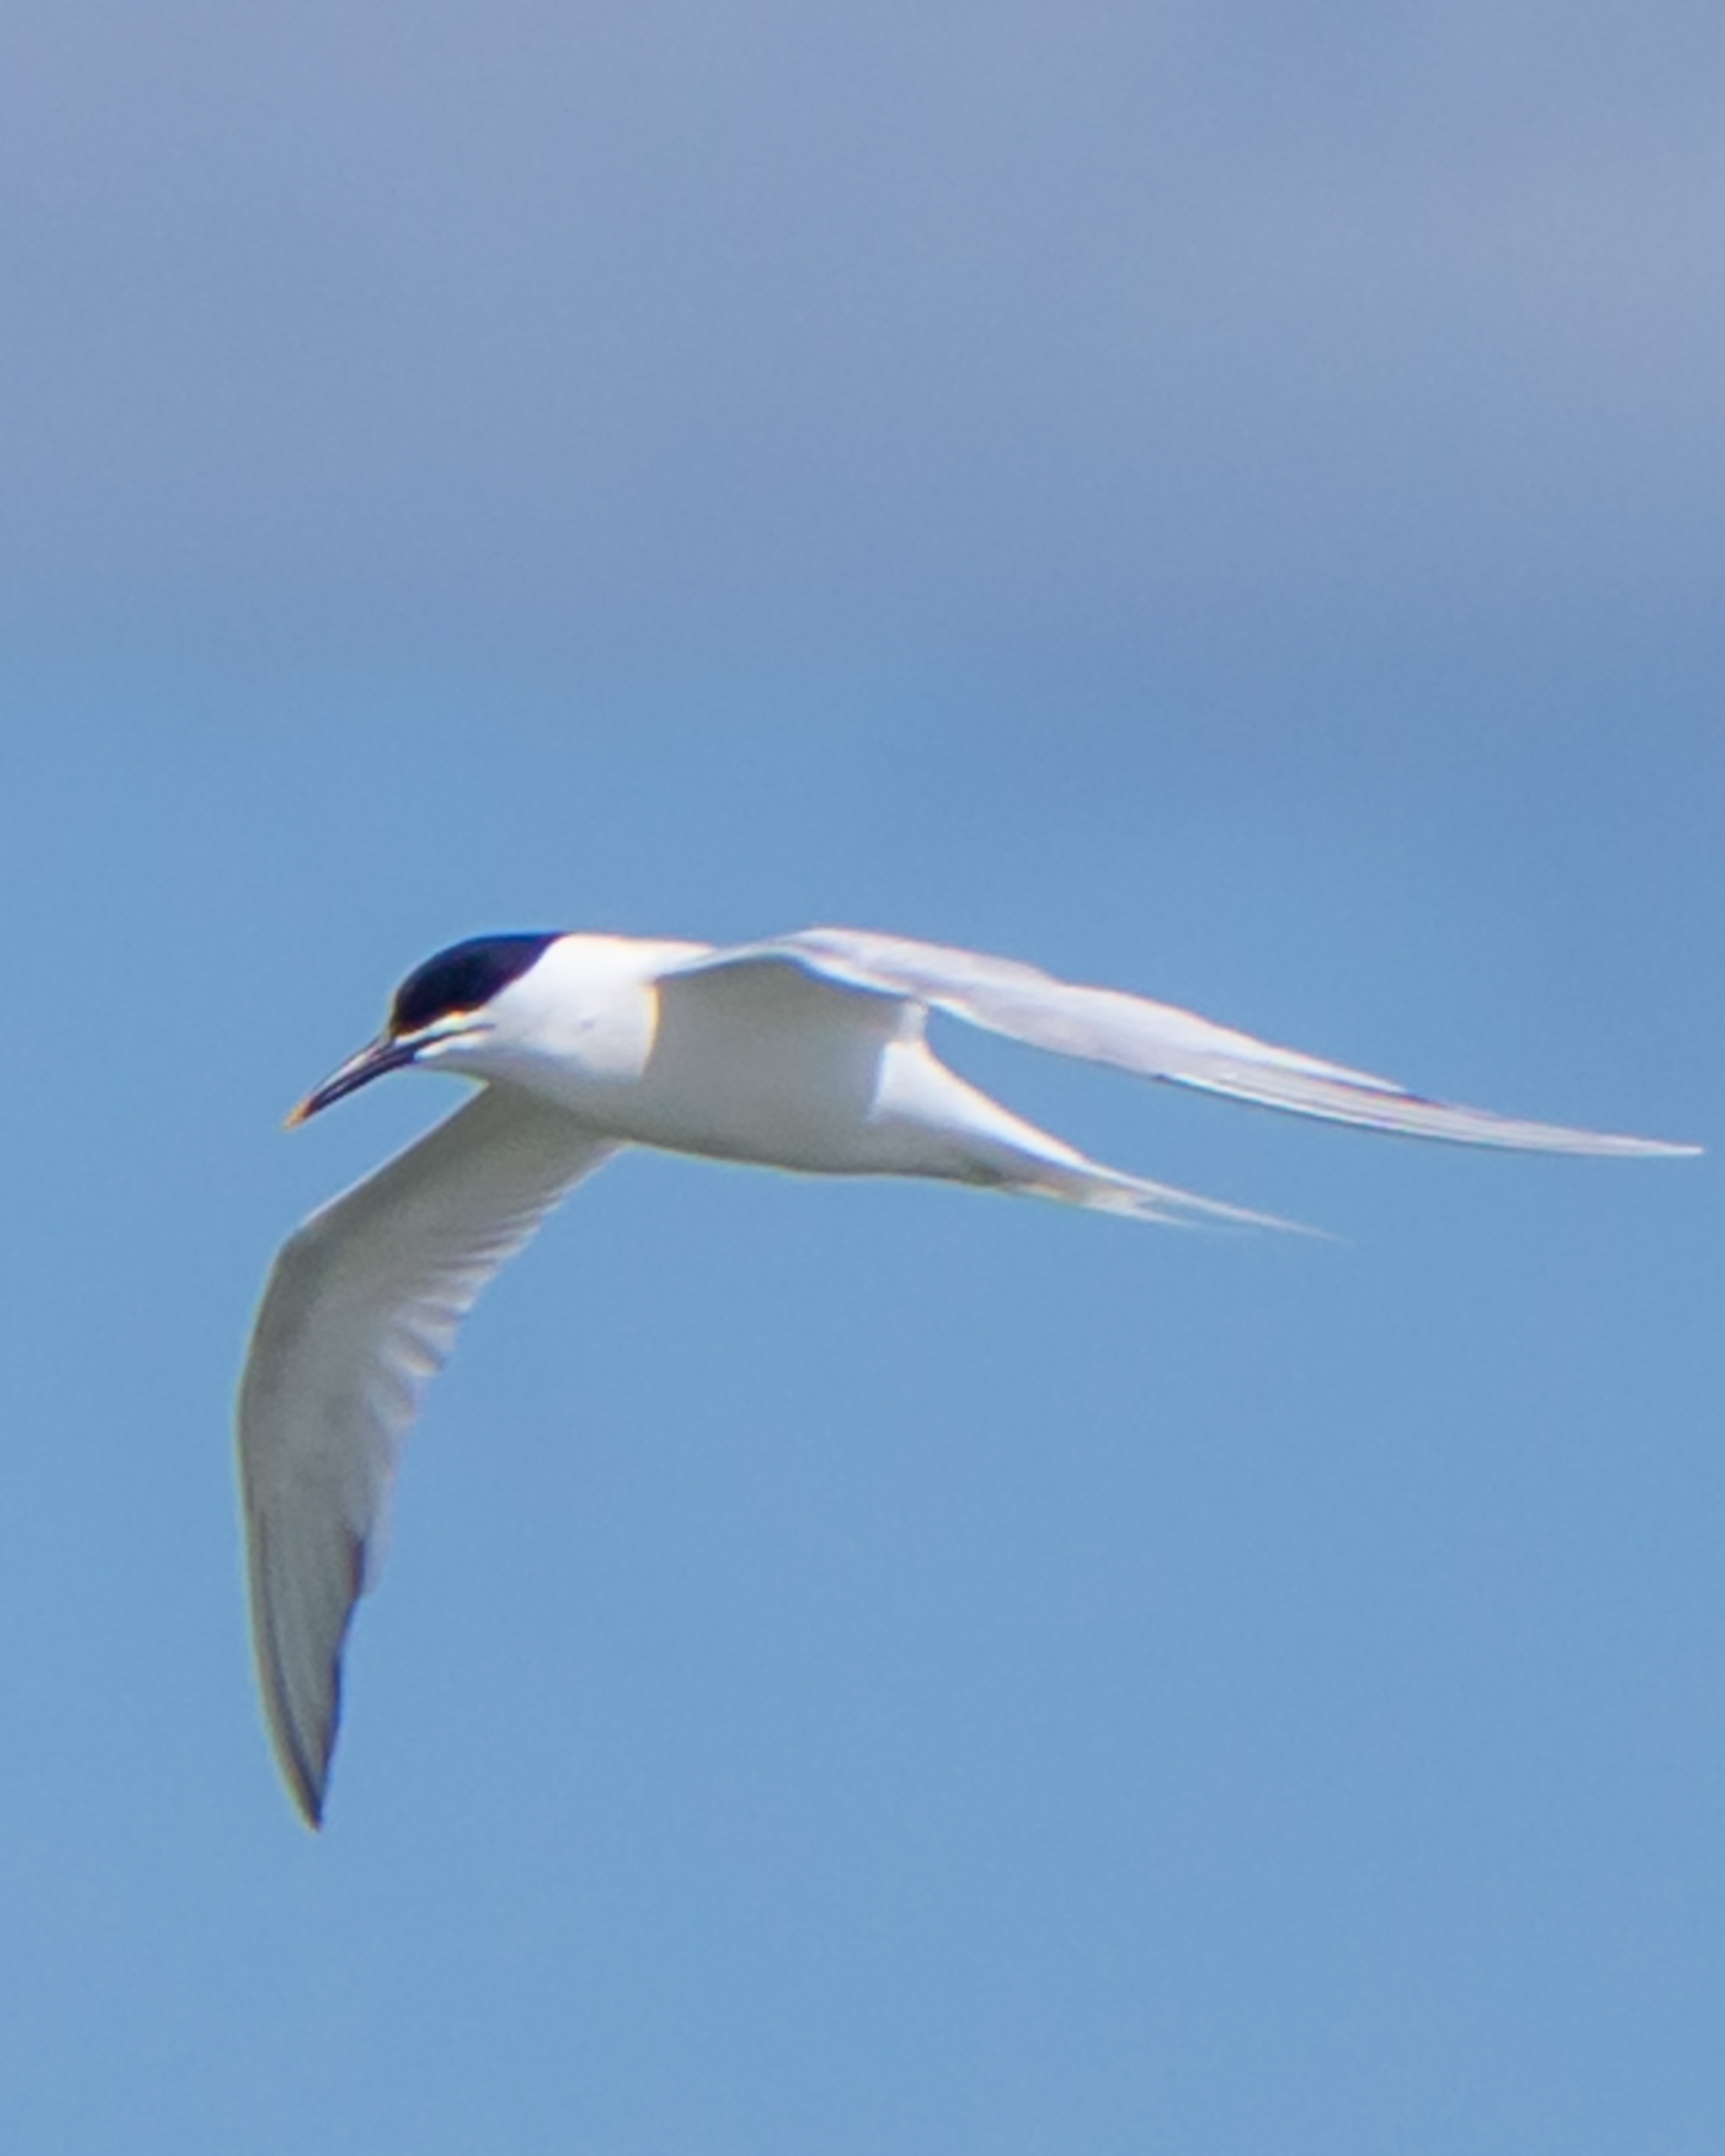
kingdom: Animalia
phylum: Chordata
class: Aves
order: Charadriiformes
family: Laridae
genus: Thalasseus
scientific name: Thalasseus sandvicensis
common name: Splitterne
